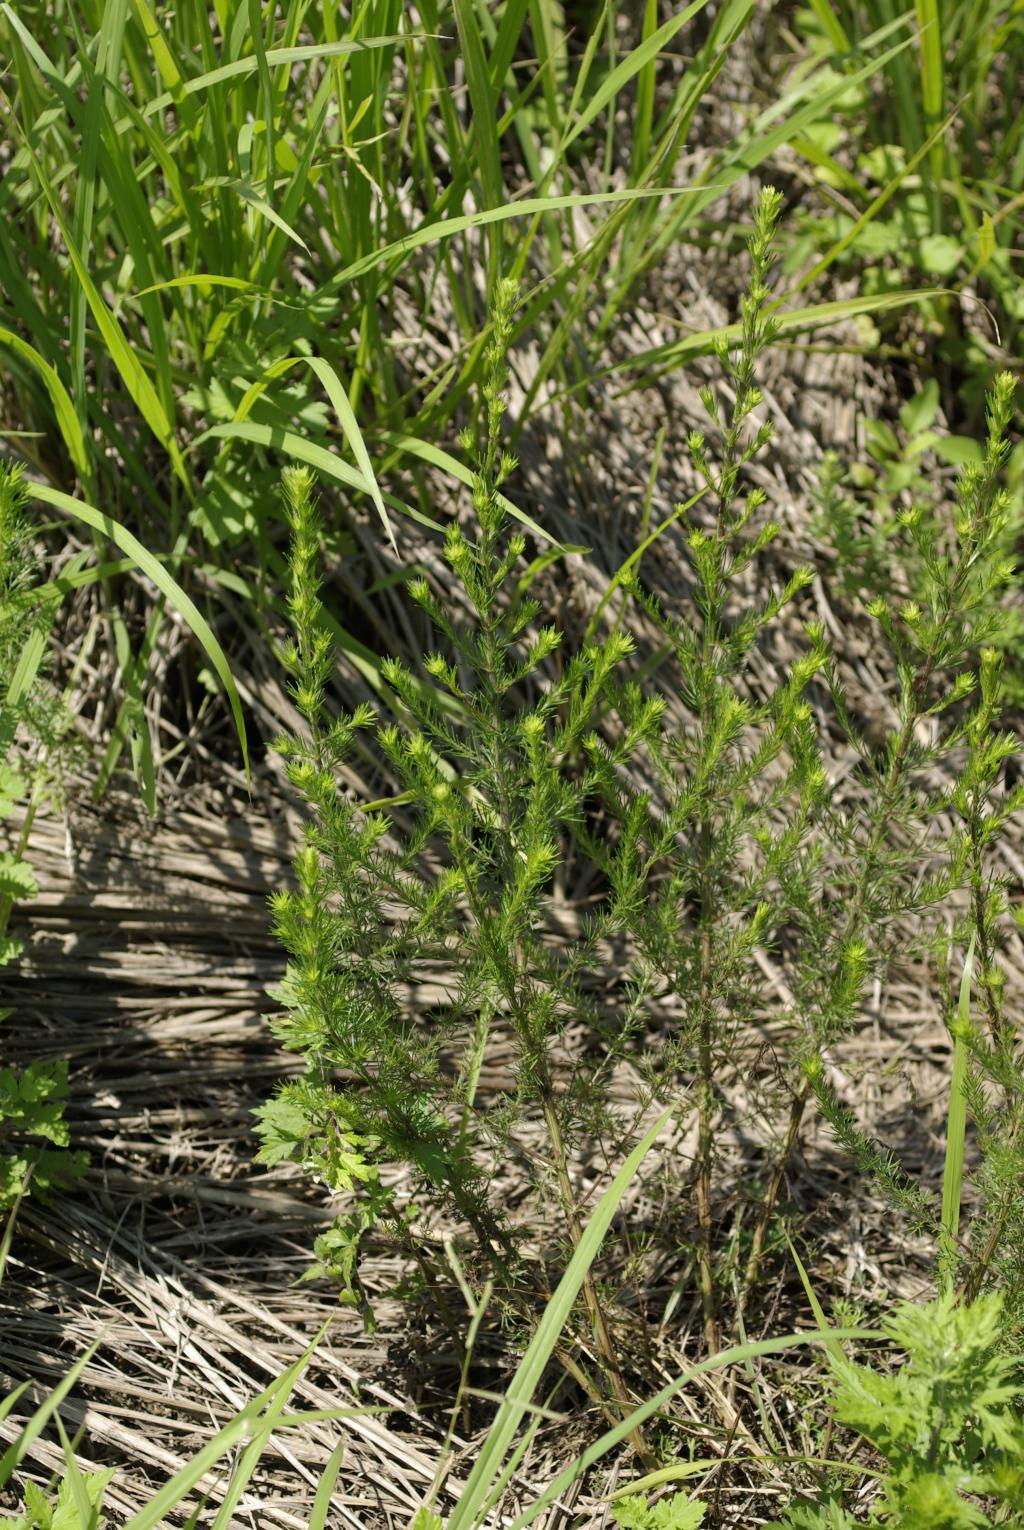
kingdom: Plantae
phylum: Tracheophyta
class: Magnoliopsida
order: Asterales
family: Asteraceae
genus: Artemisia
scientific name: Artemisia capillaris
